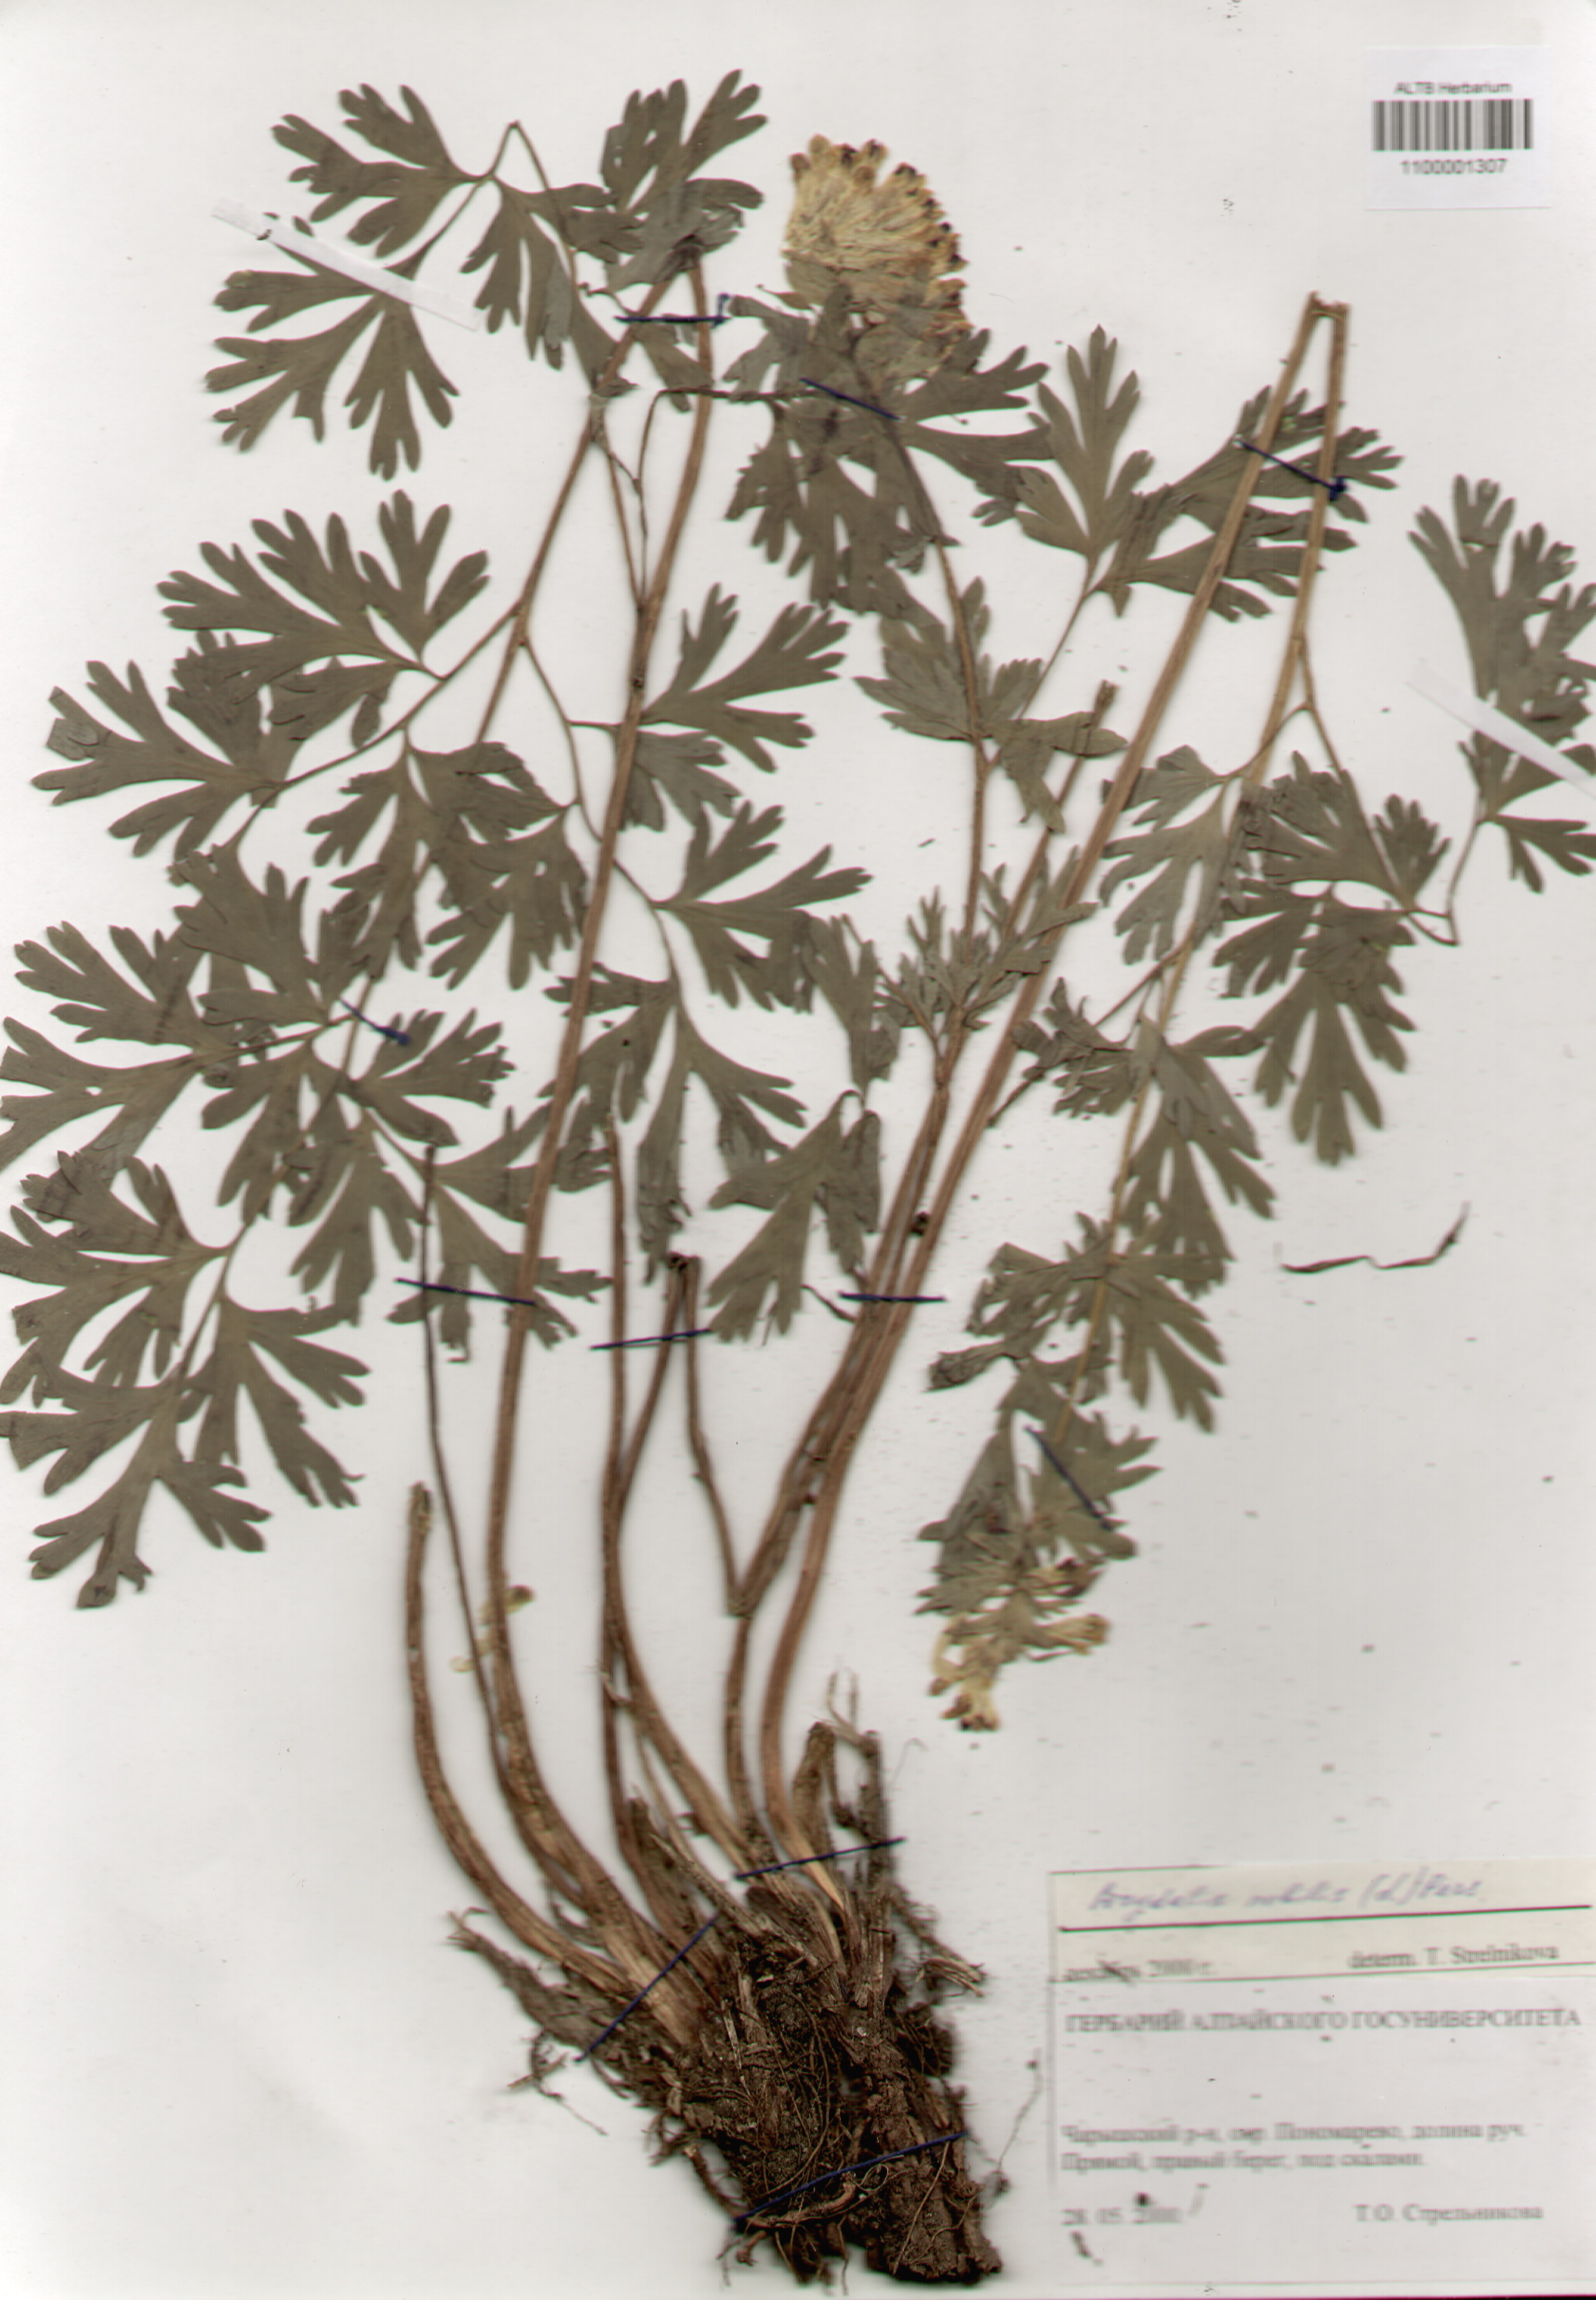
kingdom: Plantae
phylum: Tracheophyta
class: Magnoliopsida
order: Ranunculales
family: Papaveraceae
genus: Corydalis
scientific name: Corydalis nobilis
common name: Siberian corydalis
